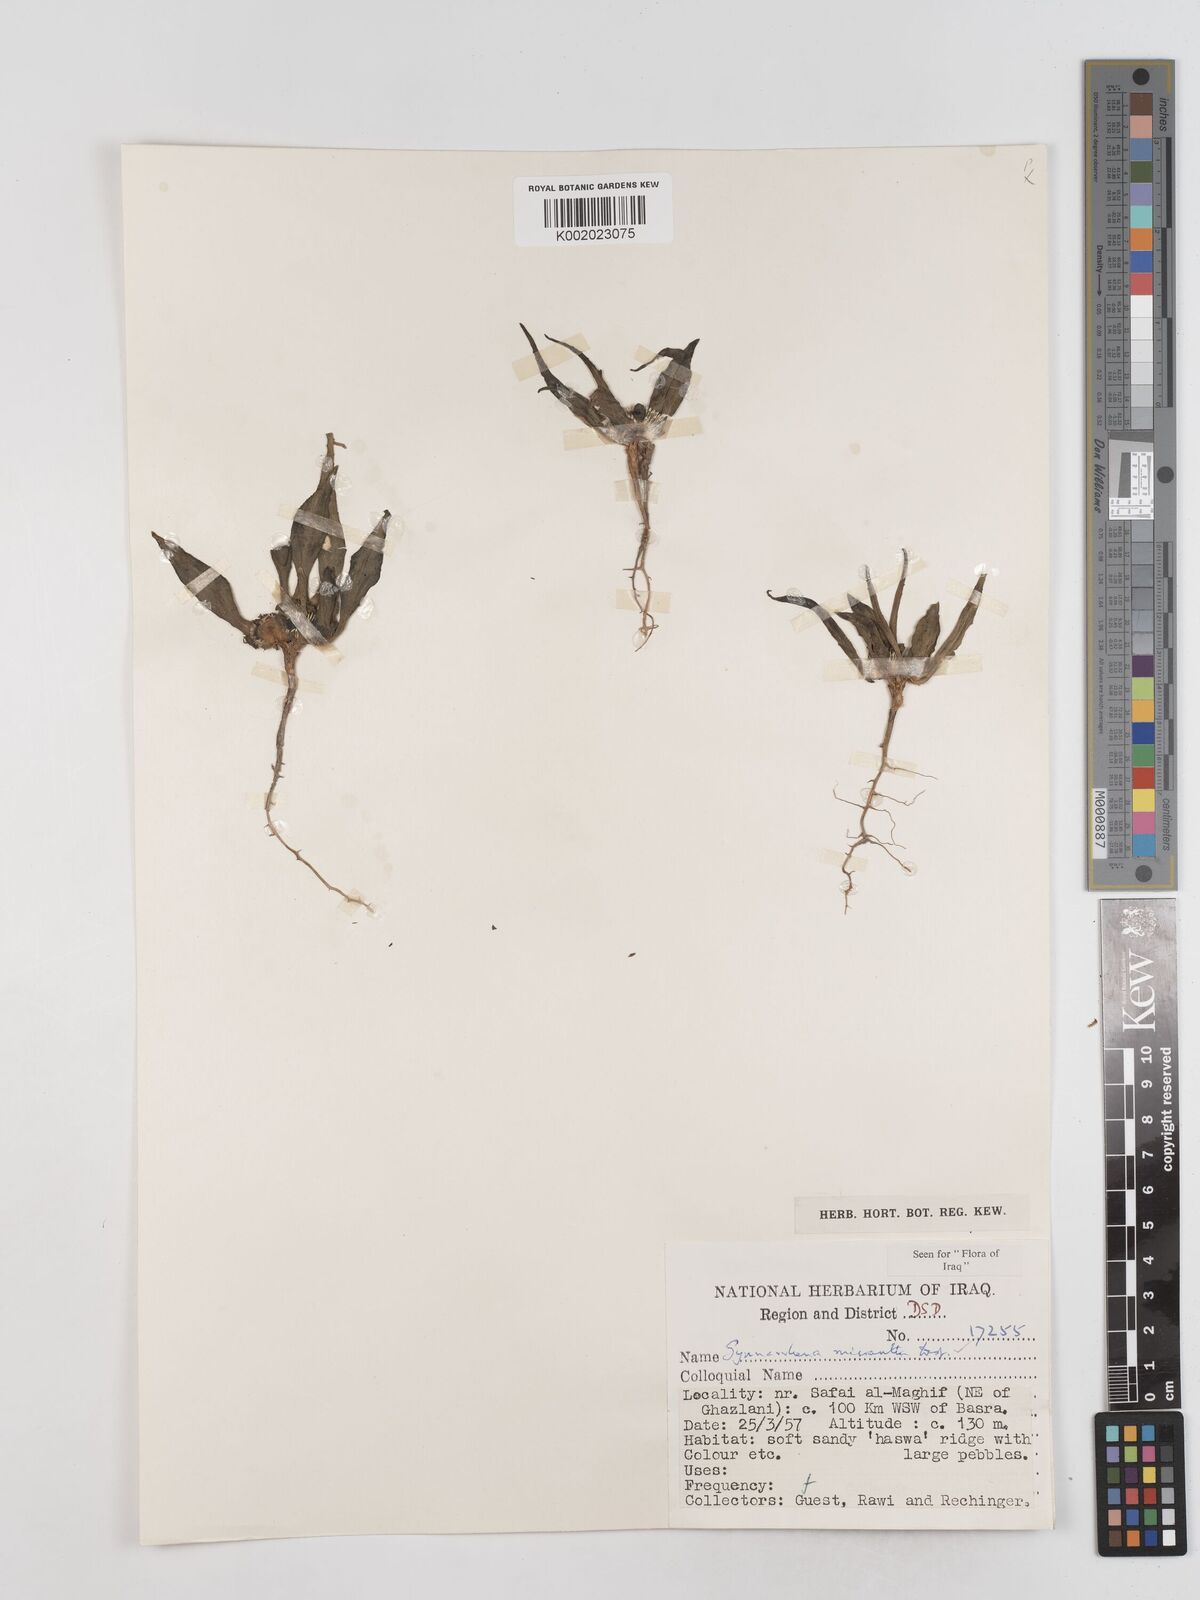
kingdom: Plantae
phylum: Tracheophyta
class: Magnoliopsida
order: Asterales
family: Asteraceae
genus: Gymnarrhena
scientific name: Gymnarrhena micrantha
